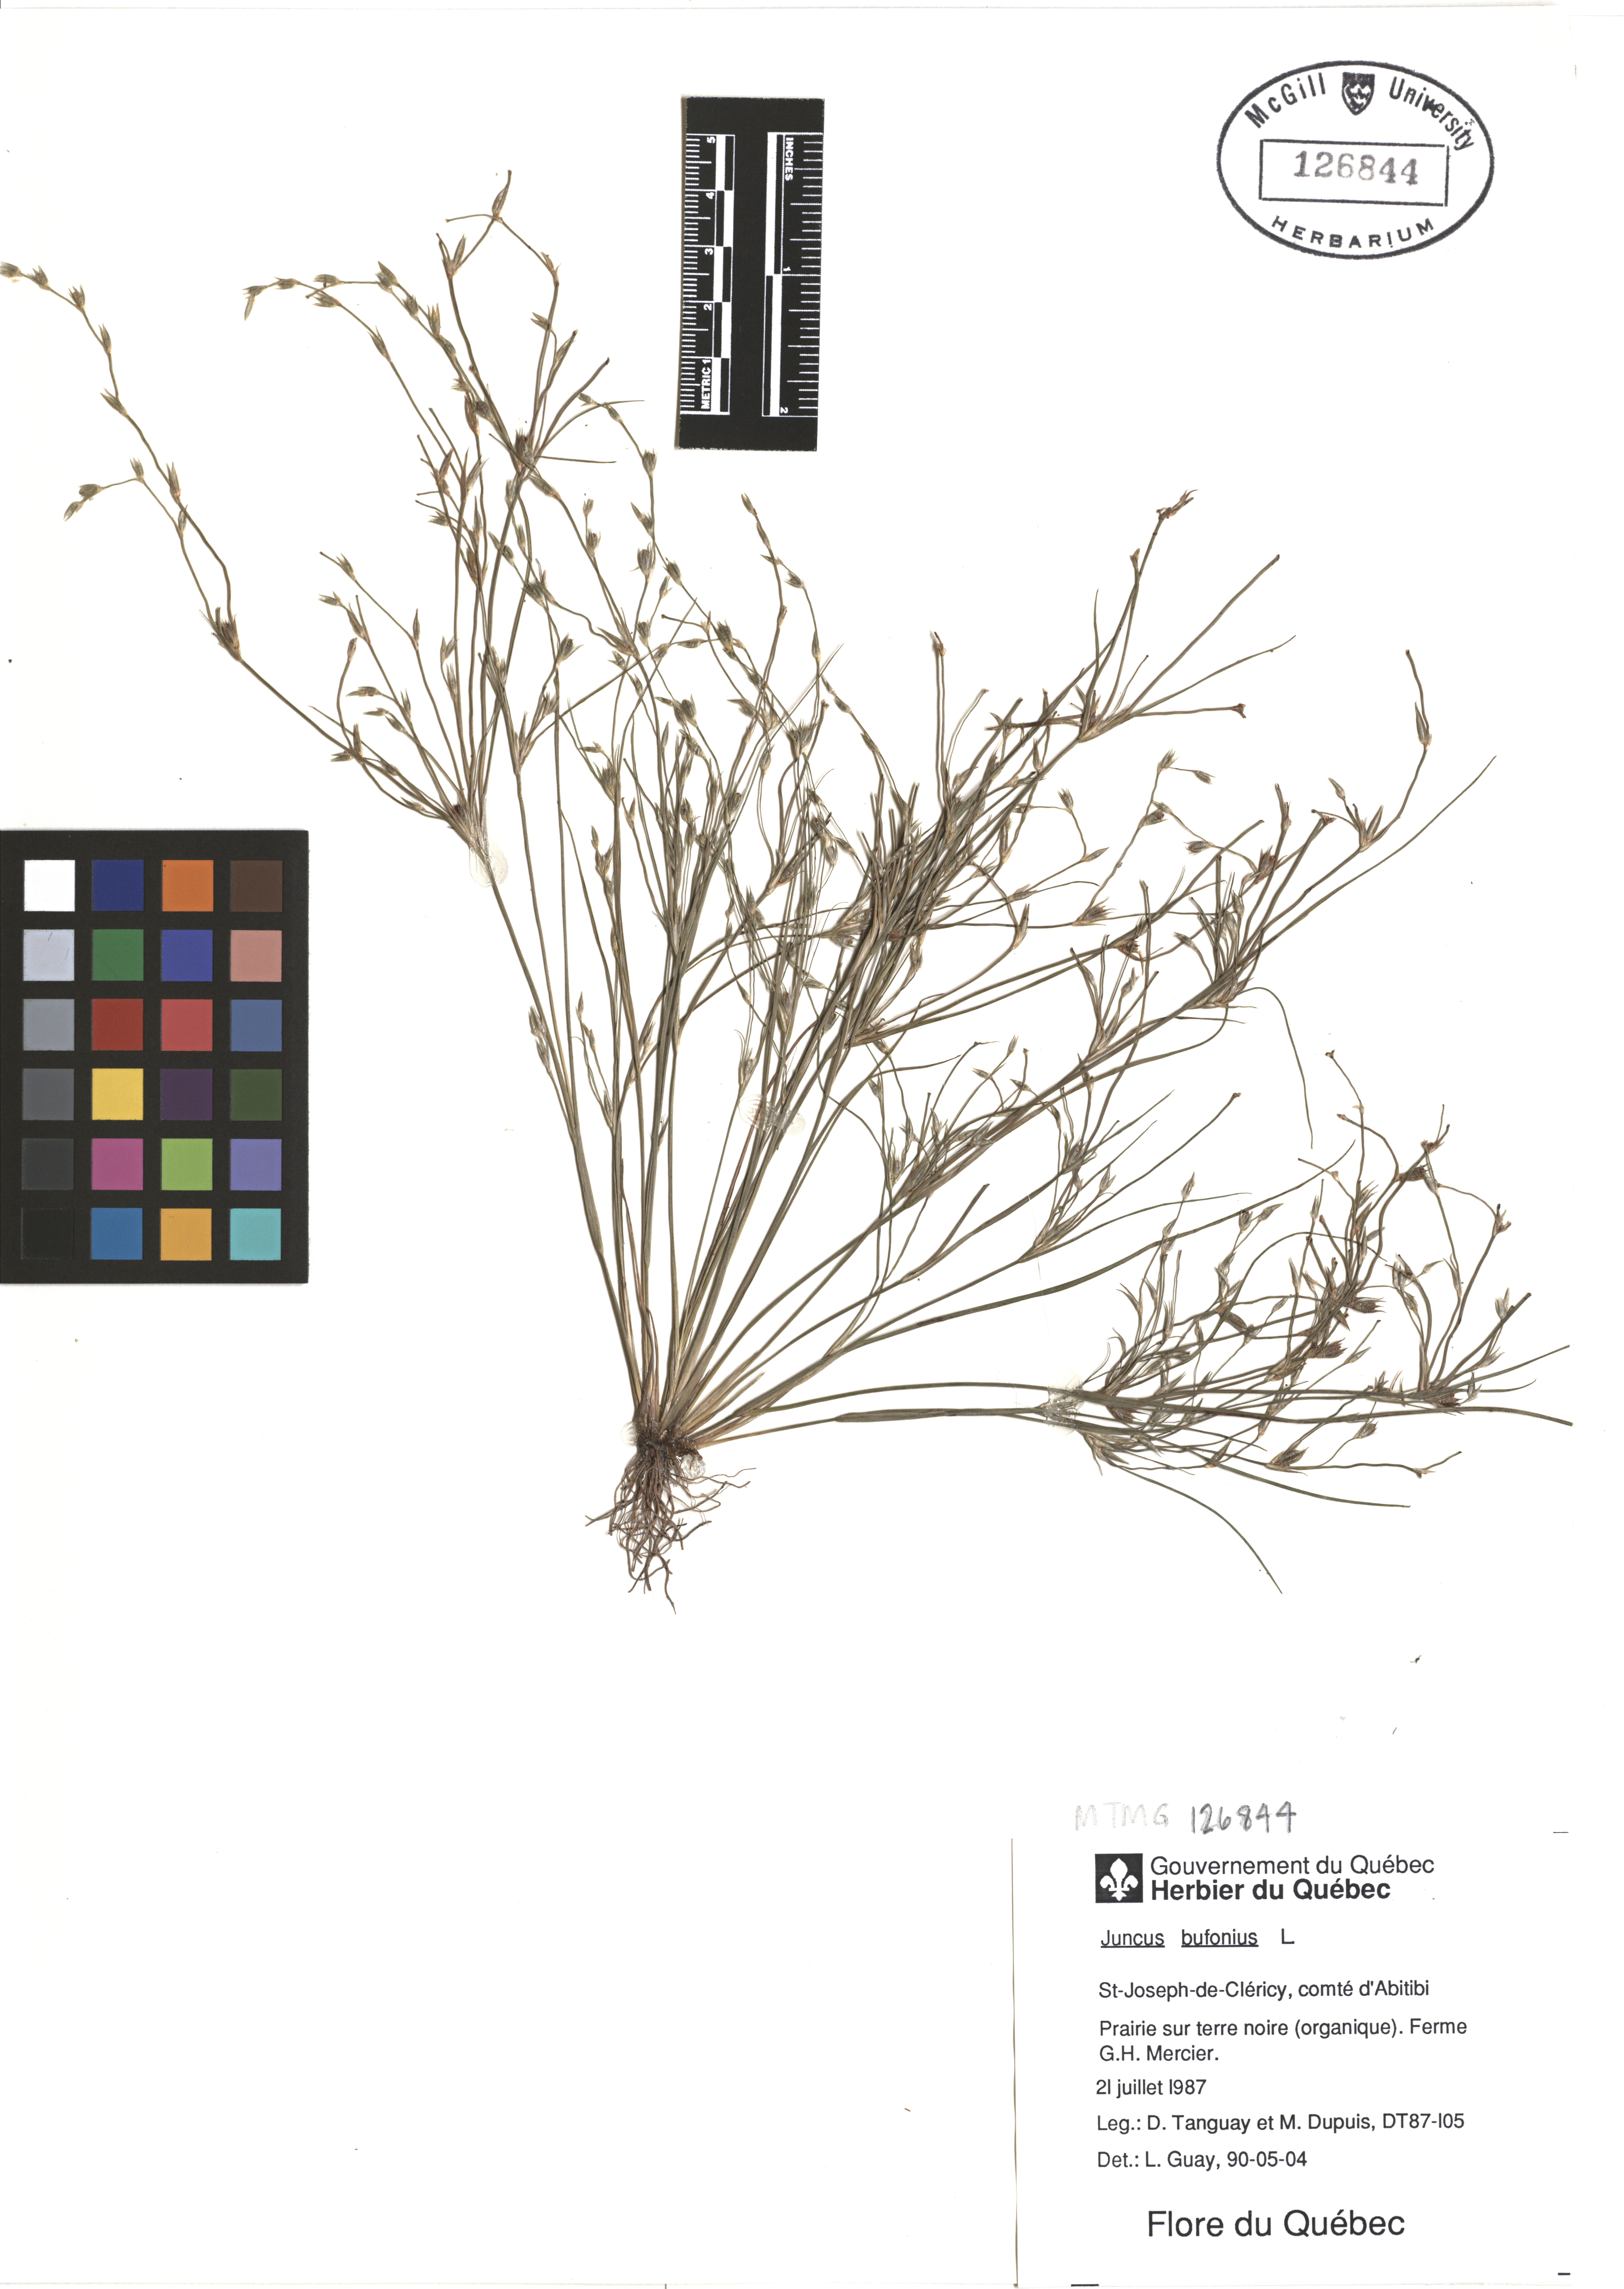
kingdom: Plantae
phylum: Tracheophyta
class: Liliopsida
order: Poales
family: Juncaceae
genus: Juncus
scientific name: Juncus bufonius
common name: Toad rush
